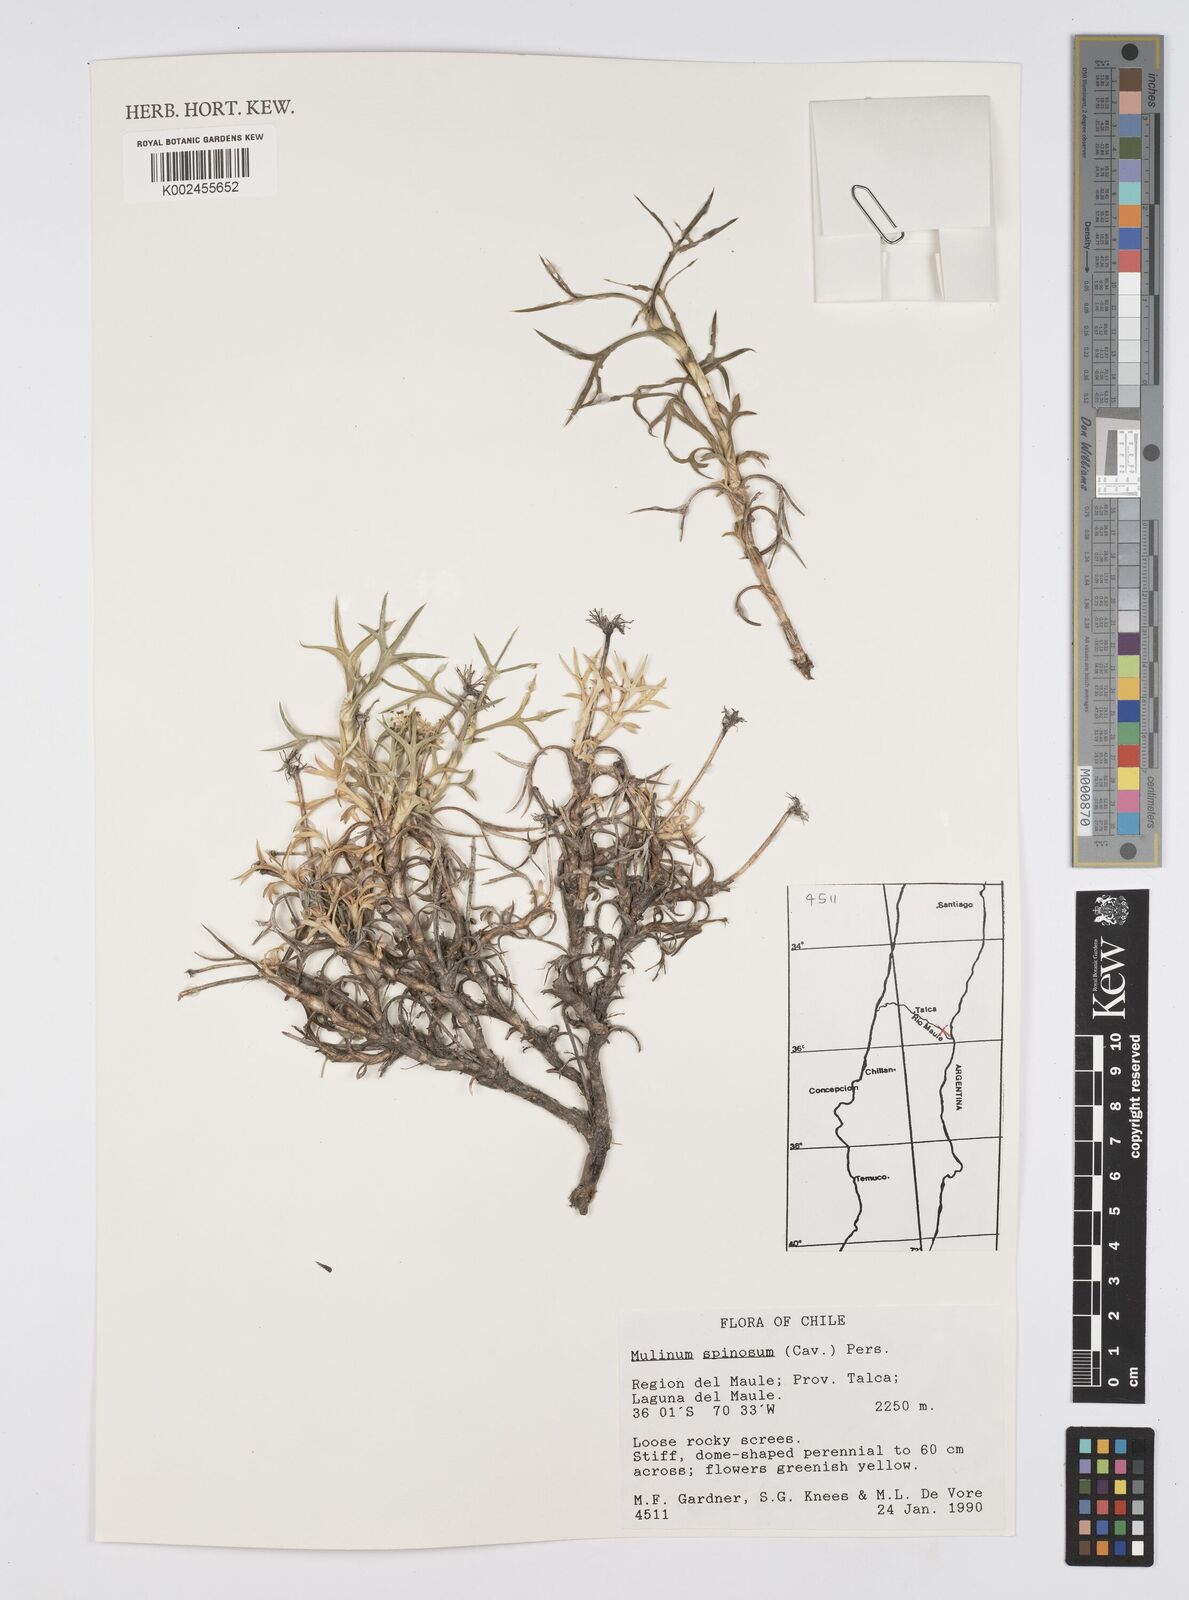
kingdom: Plantae
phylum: Tracheophyta
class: Magnoliopsida
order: Apiales
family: Apiaceae
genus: Azorella
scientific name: Azorella prolifera
